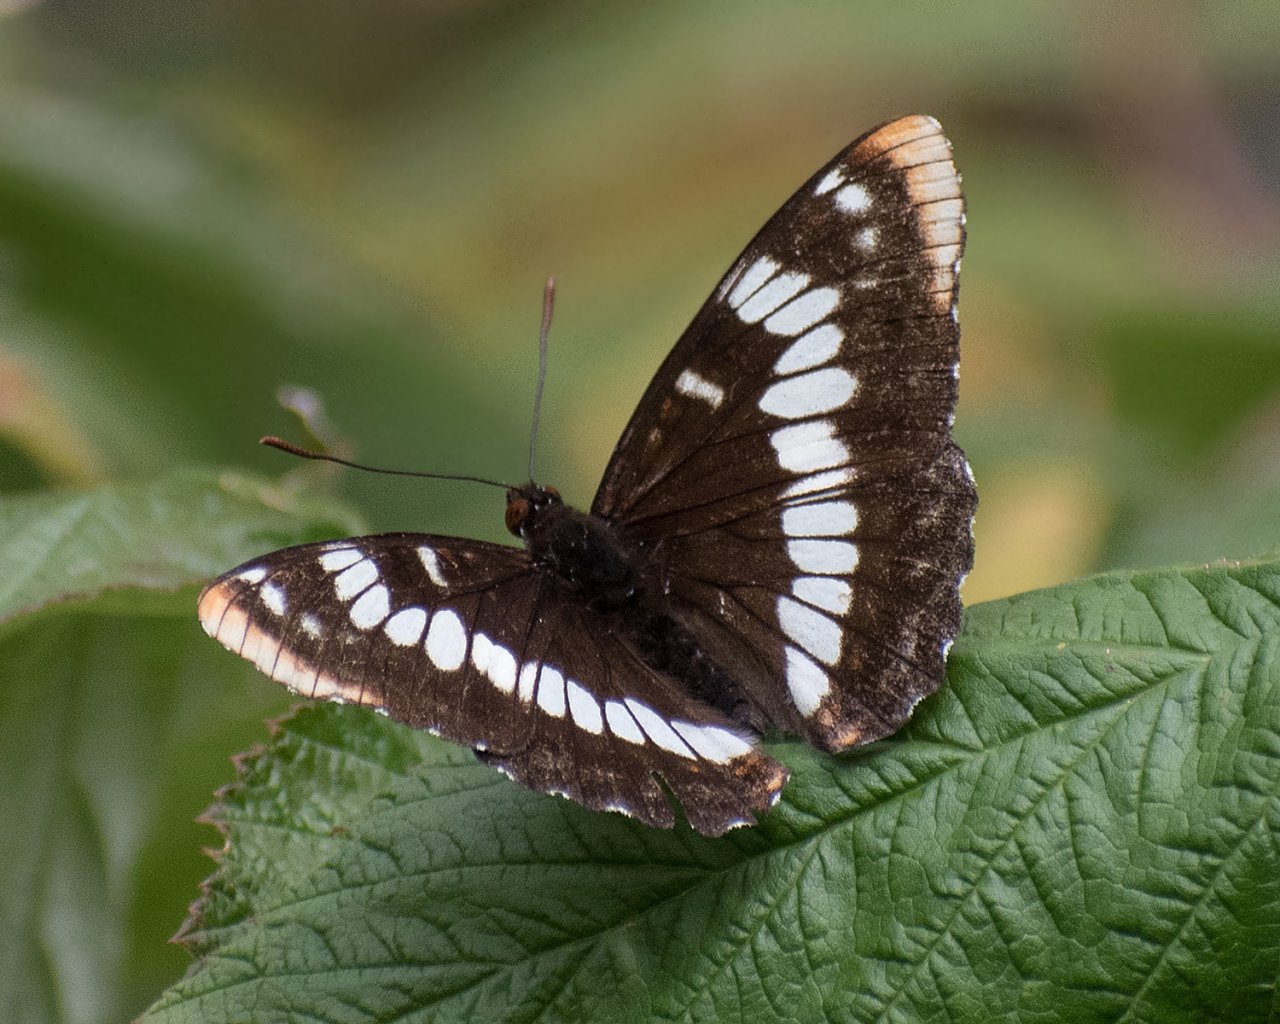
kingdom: Animalia
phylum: Arthropoda
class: Insecta
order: Lepidoptera
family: Nymphalidae
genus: Limenitis
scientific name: Limenitis lorquini
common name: Lorquin's Admiral
